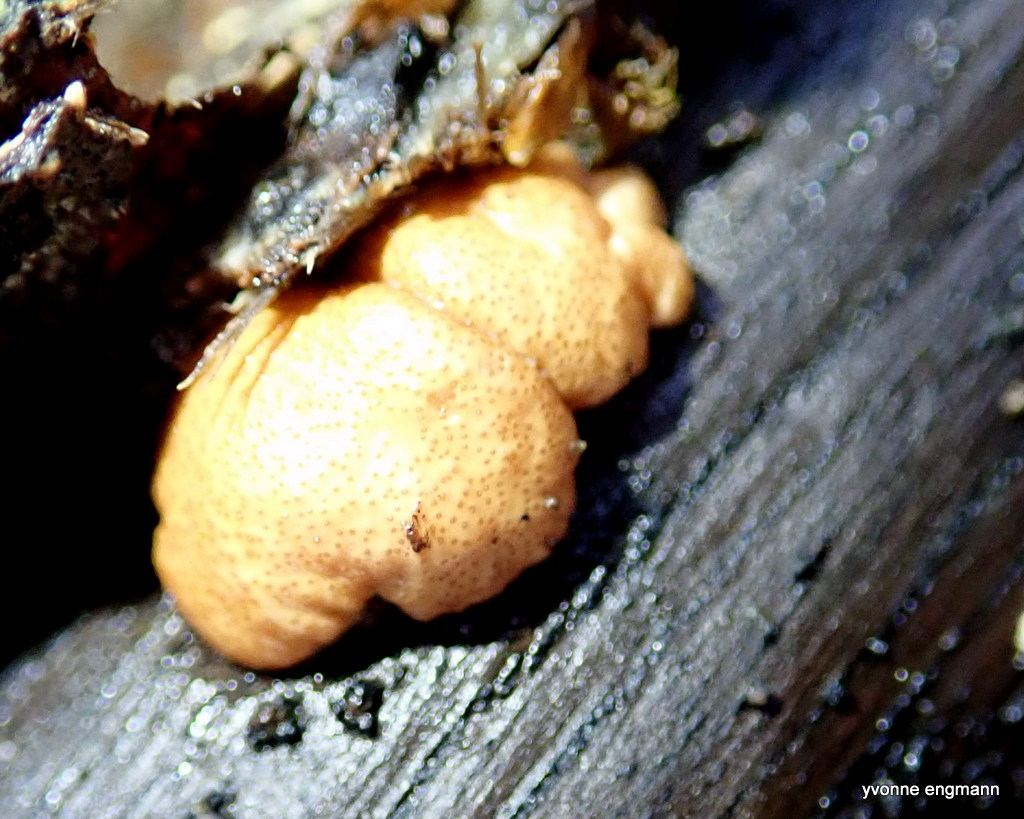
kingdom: Fungi
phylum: Ascomycota
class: Sordariomycetes
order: Hypocreales
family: Hypocreaceae
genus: Trichoderma
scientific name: Trichoderma europaeum
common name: rosabrun kødkerne
